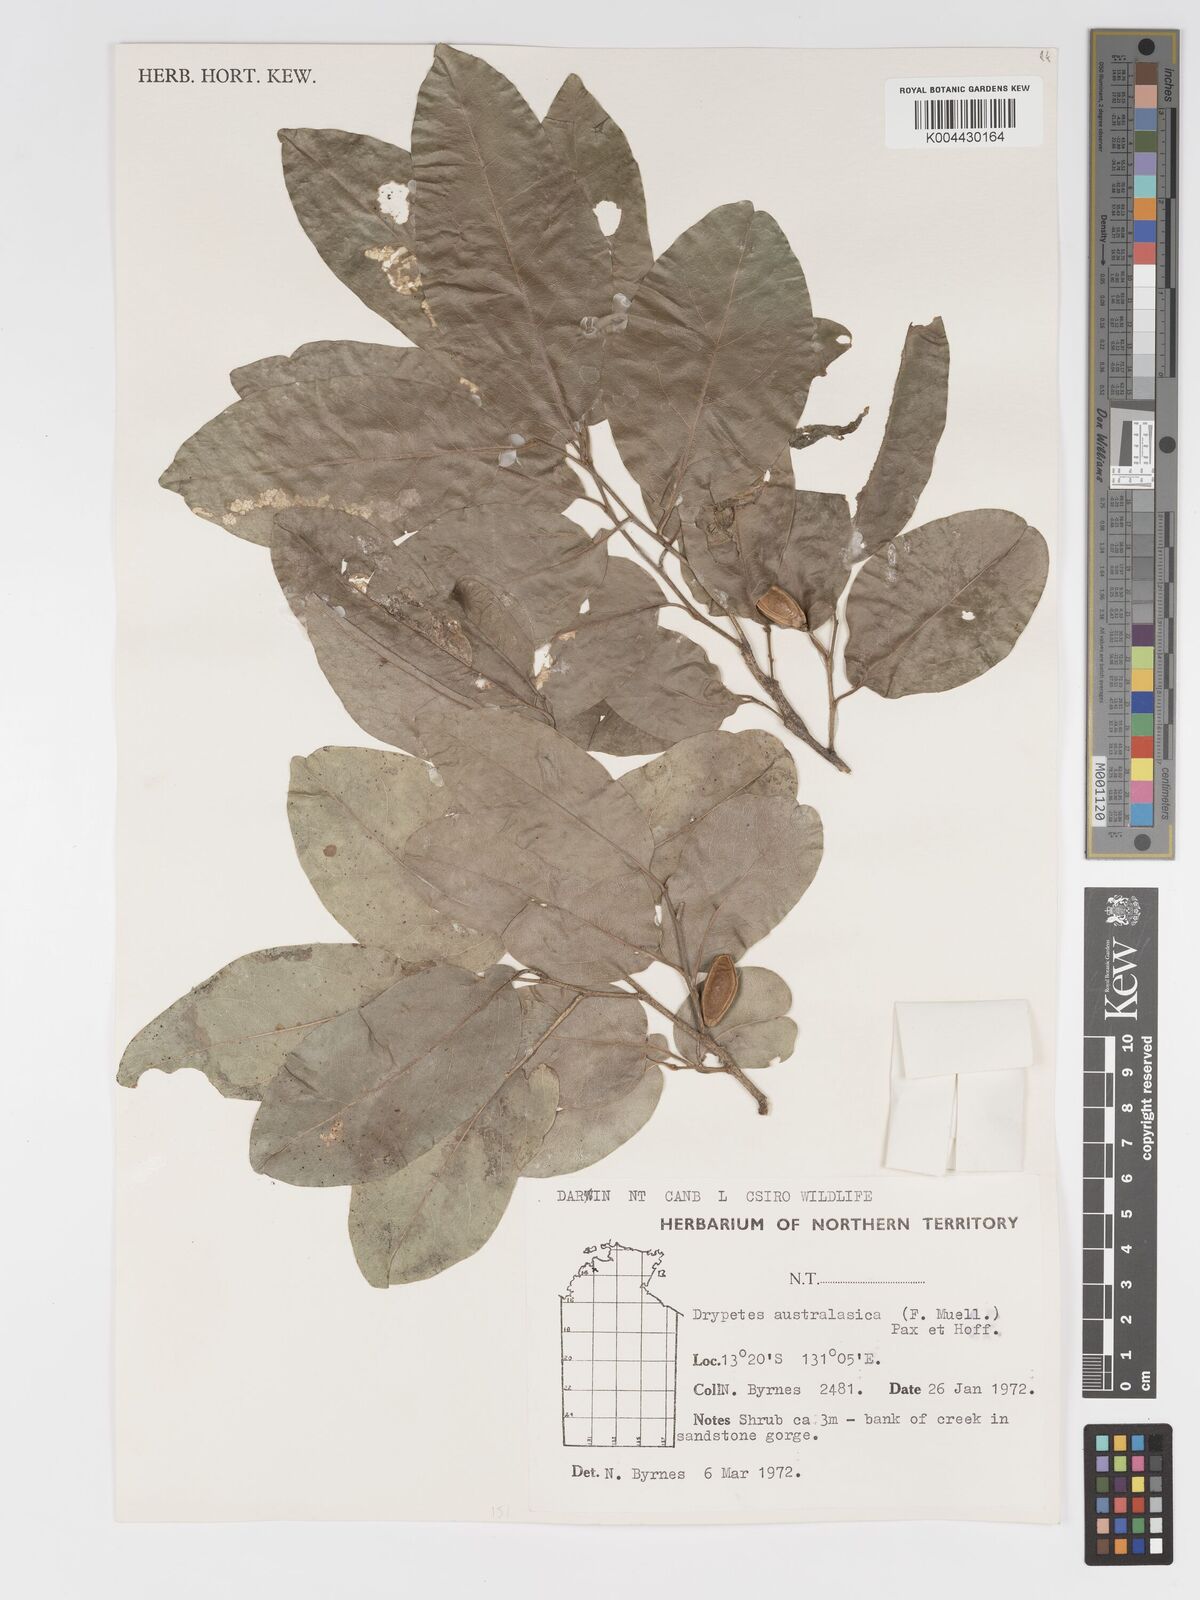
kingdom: Plantae
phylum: Tracheophyta
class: Magnoliopsida
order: Malpighiales
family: Putranjivaceae
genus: Drypetes
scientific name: Drypetes deplanchei
